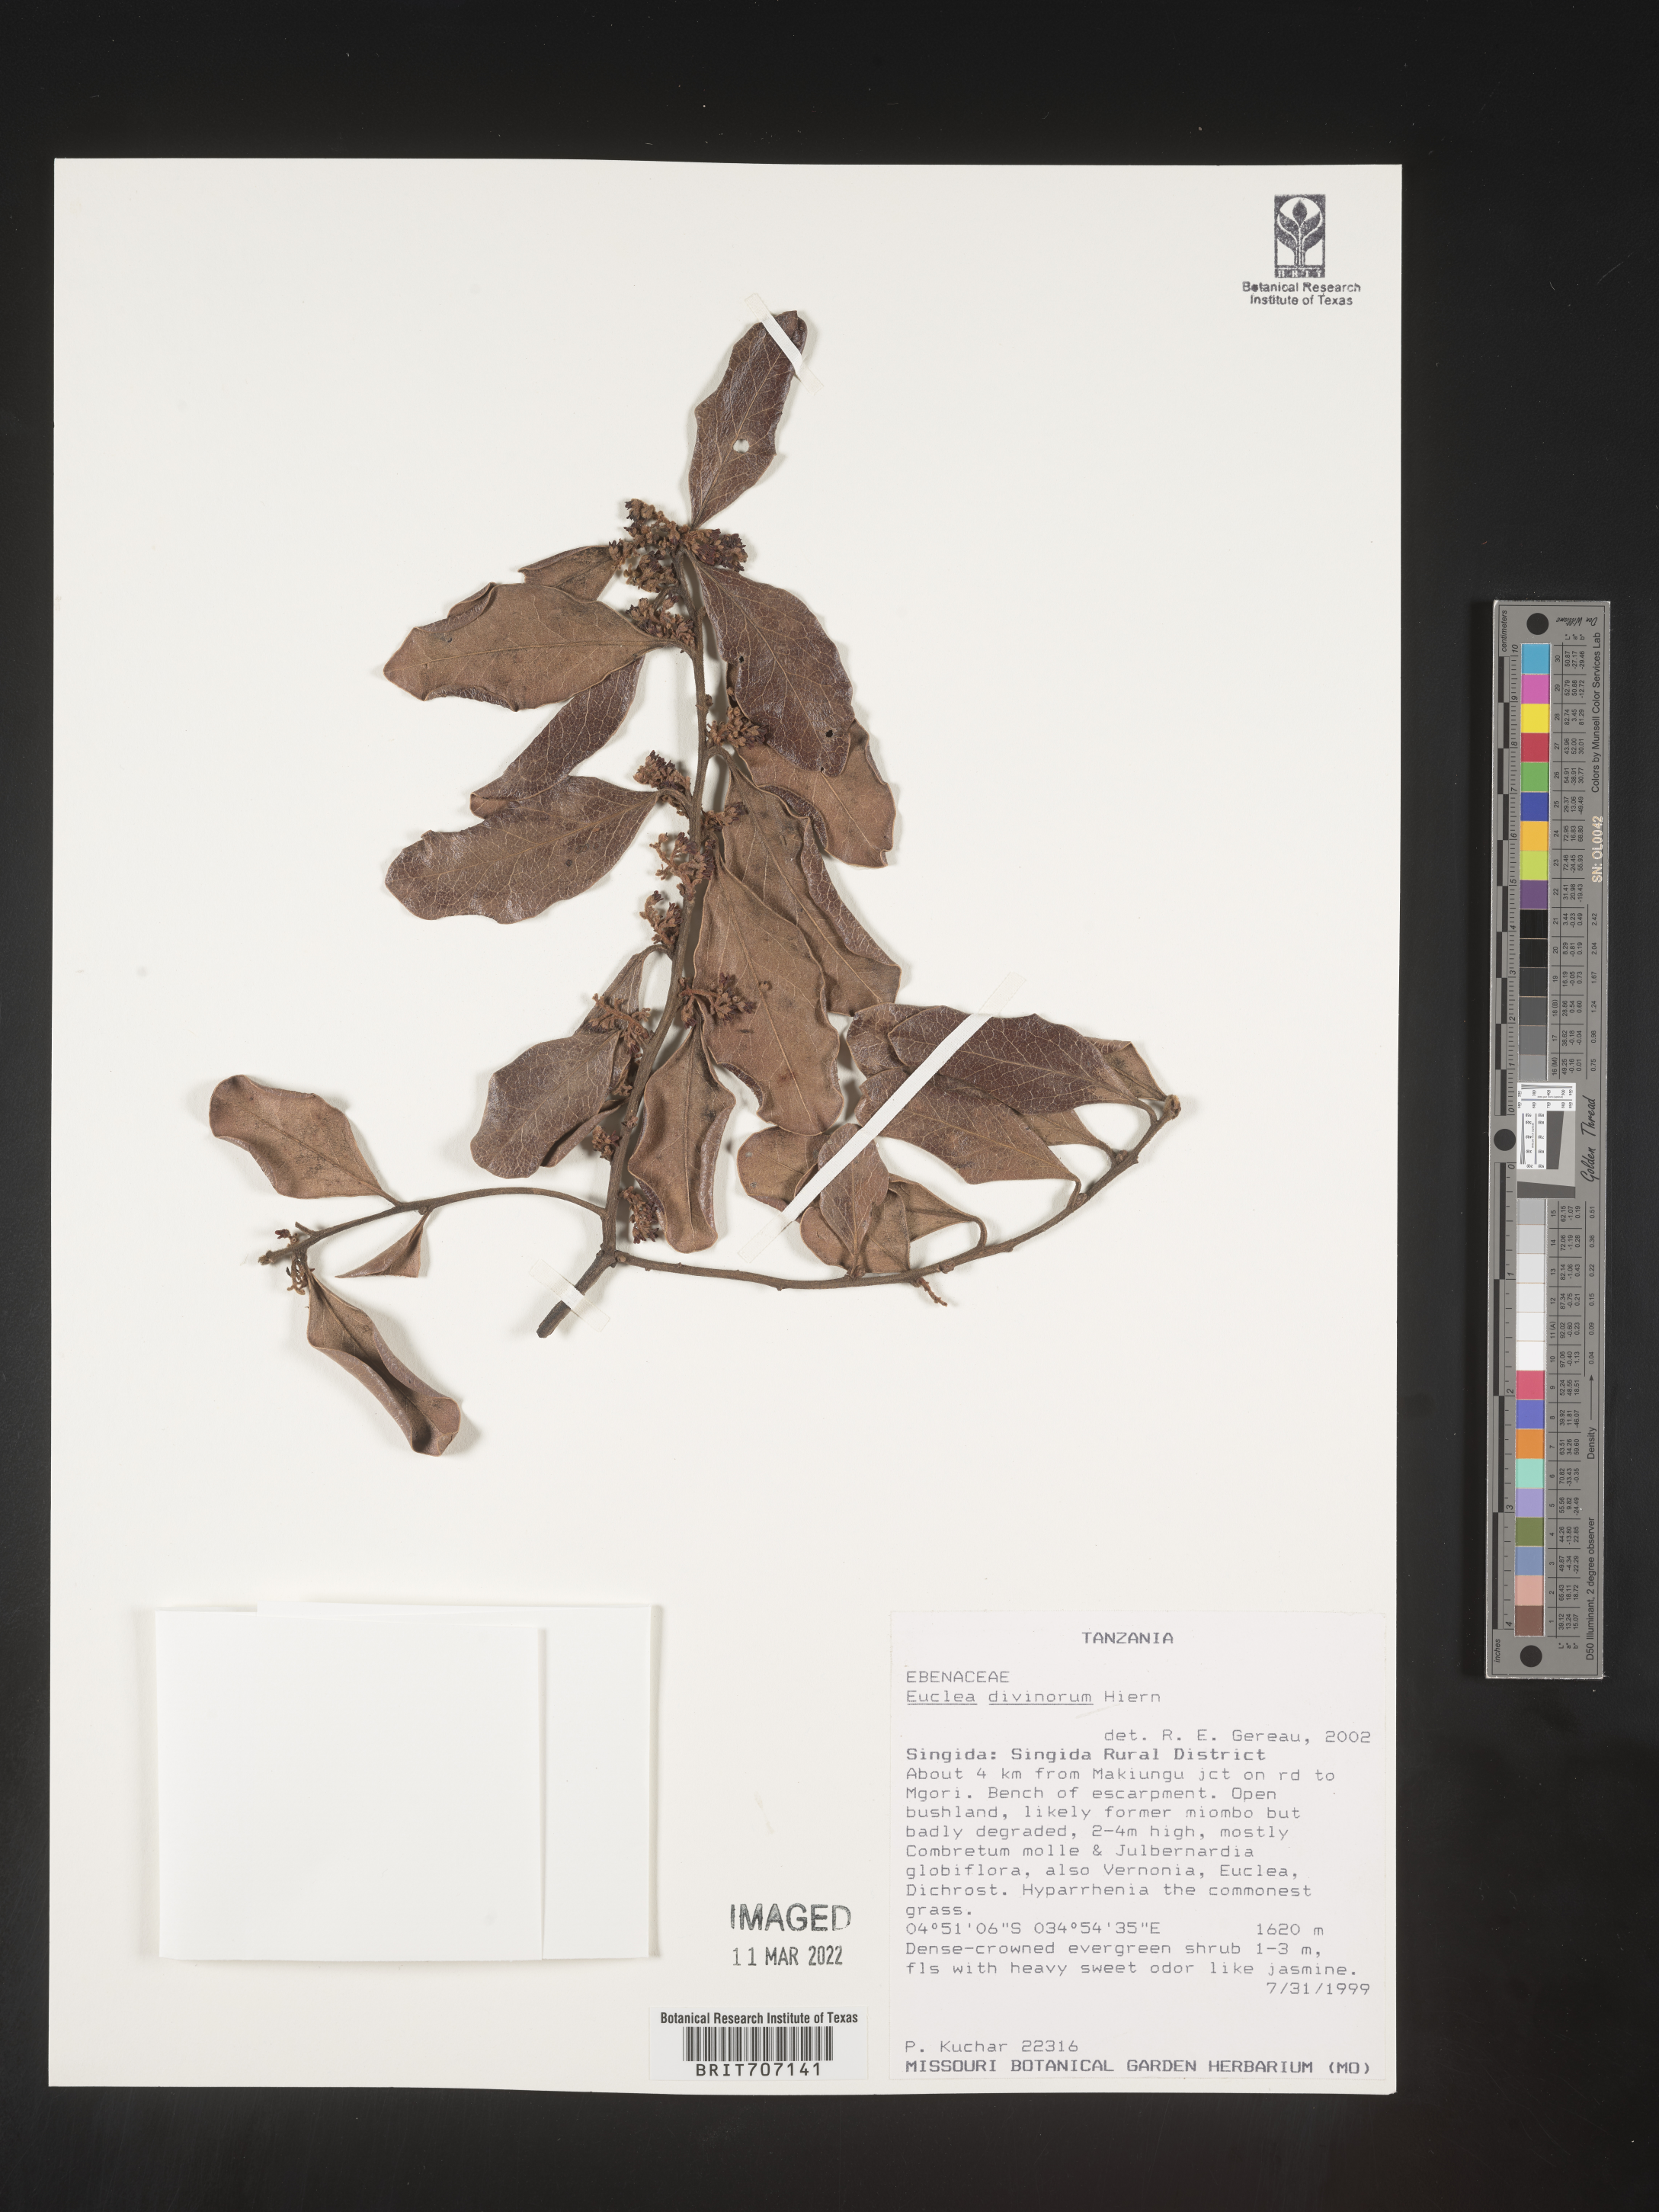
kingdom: Plantae
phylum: Tracheophyta
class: Magnoliopsida
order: Ericales
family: Ebenaceae
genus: Euclea
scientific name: Euclea
